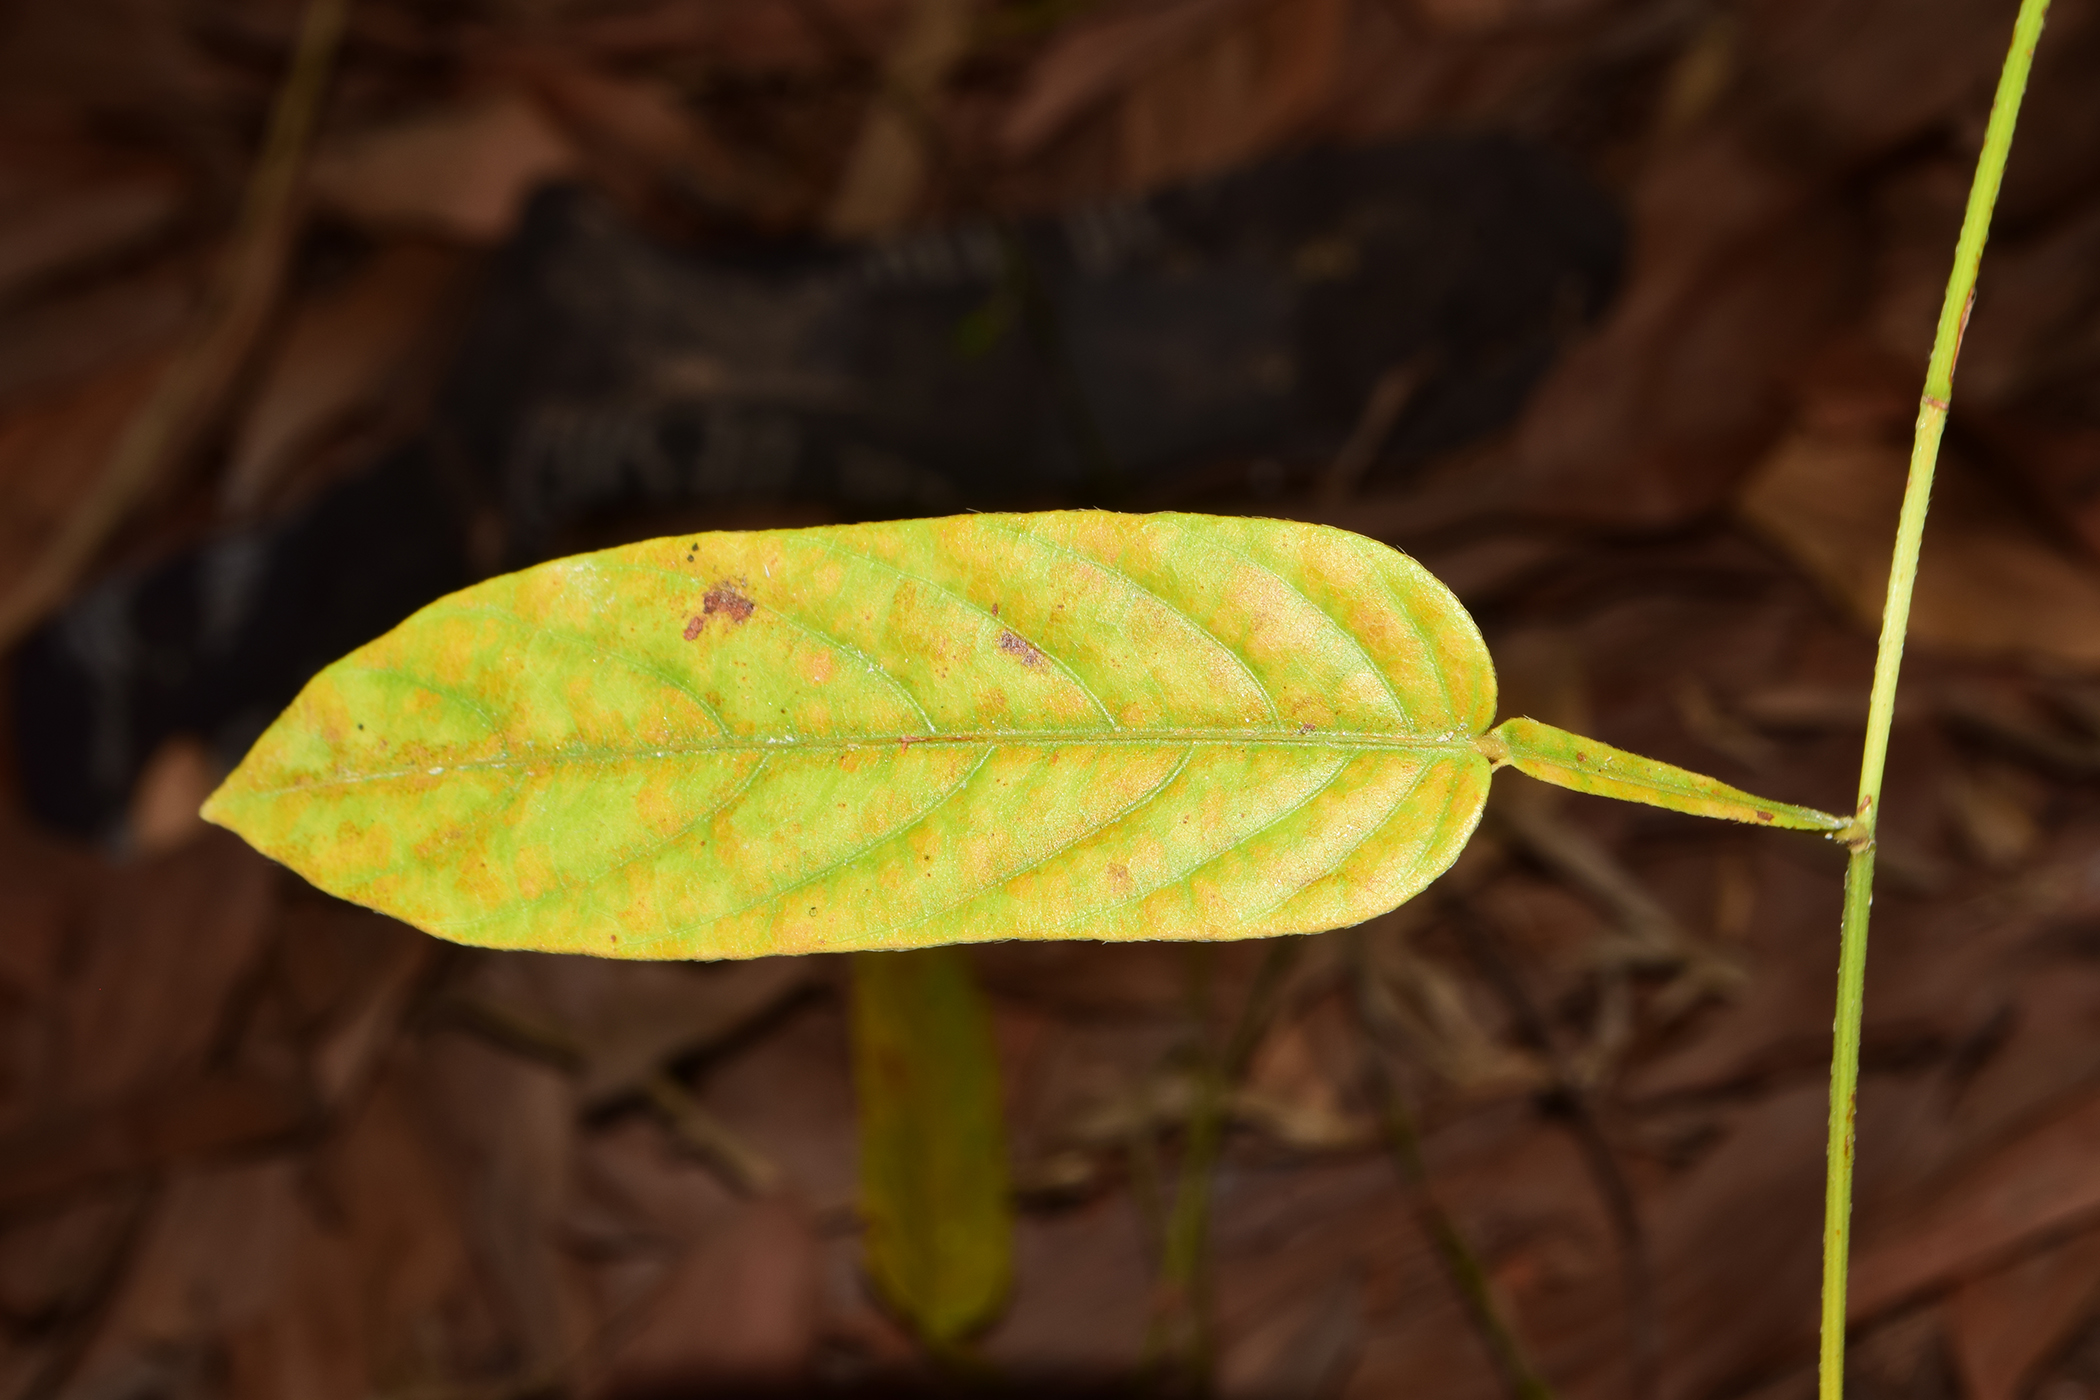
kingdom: Plantae
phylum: Tracheophyta
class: Magnoliopsida
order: Fabales
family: Fabaceae
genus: Tadehagi
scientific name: Tadehagi triquetrum
